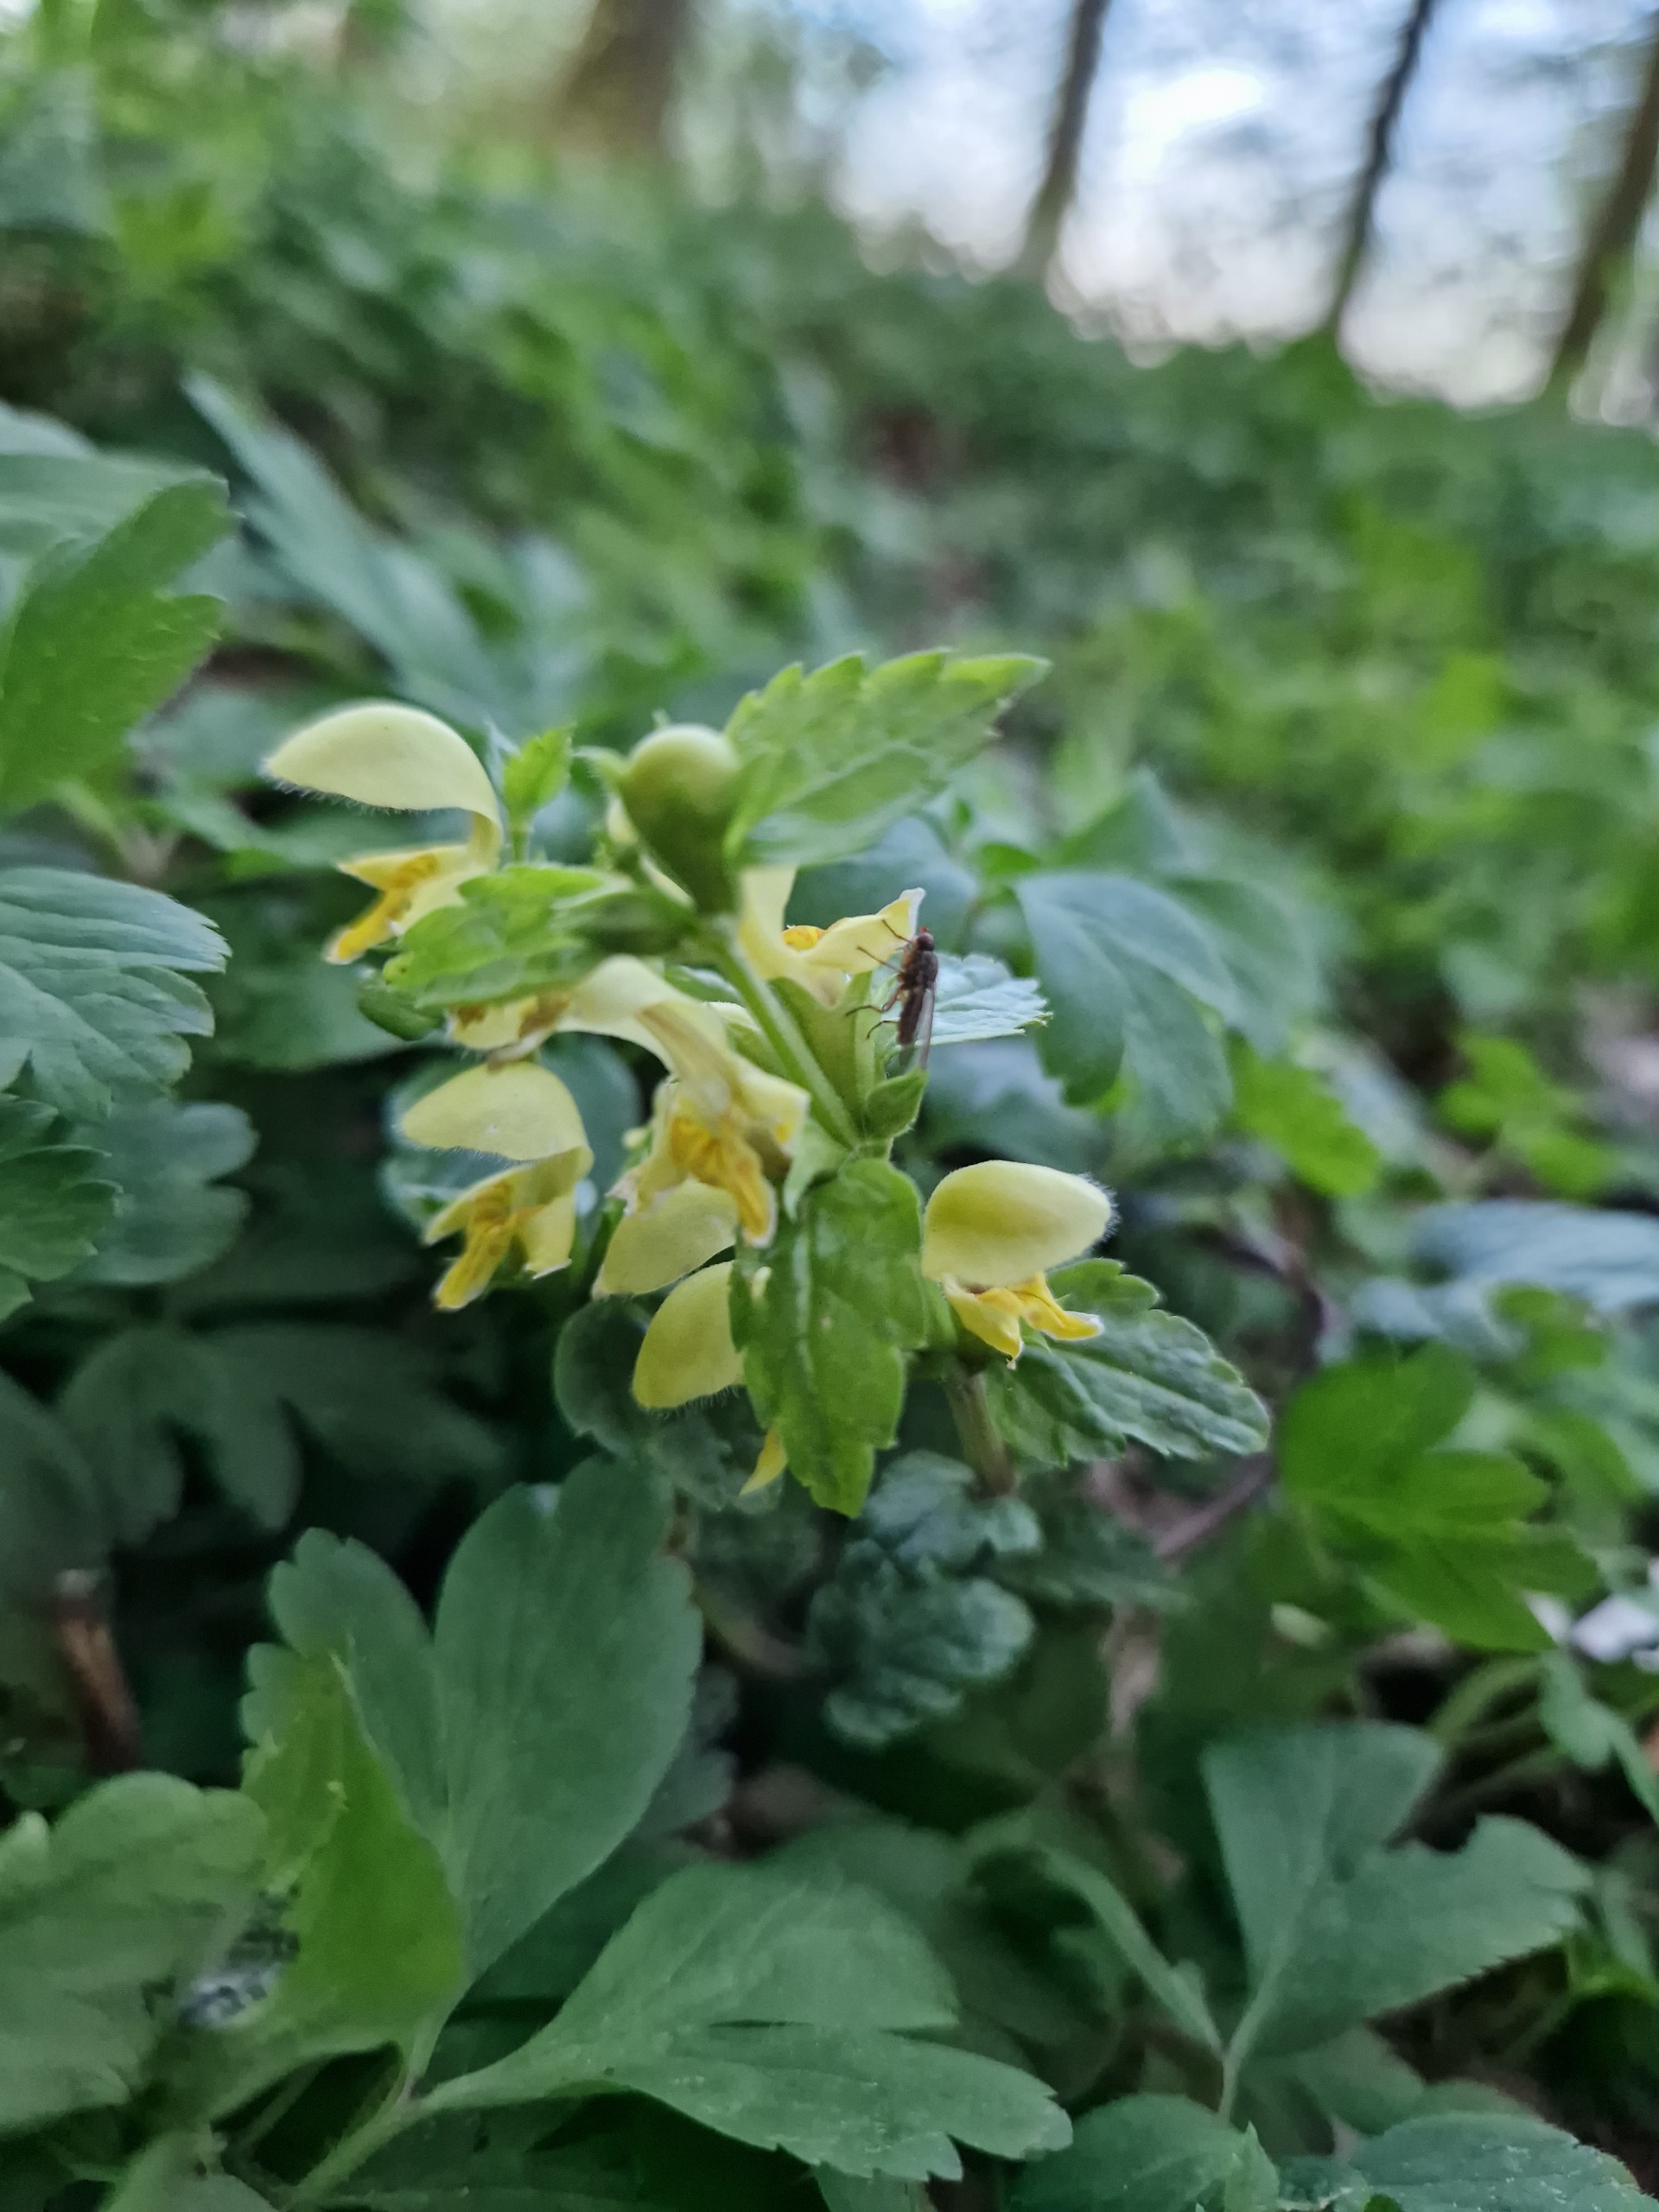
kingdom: Plantae
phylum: Tracheophyta
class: Magnoliopsida
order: Lamiales
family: Lamiaceae
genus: Lamium
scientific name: Lamium galeobdolon
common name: Guldnælde
